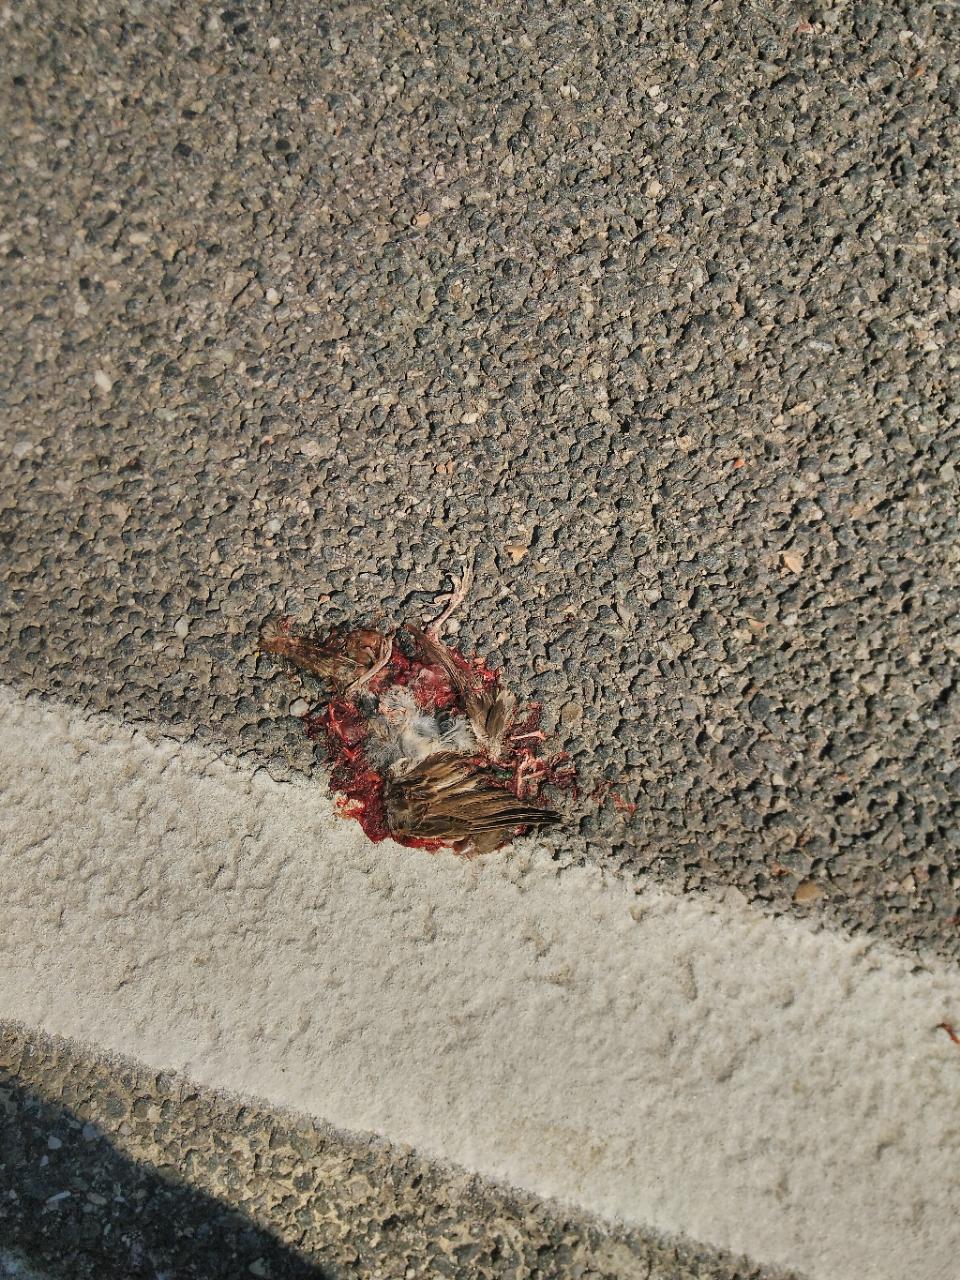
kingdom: Animalia
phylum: Chordata
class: Aves
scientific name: Aves
